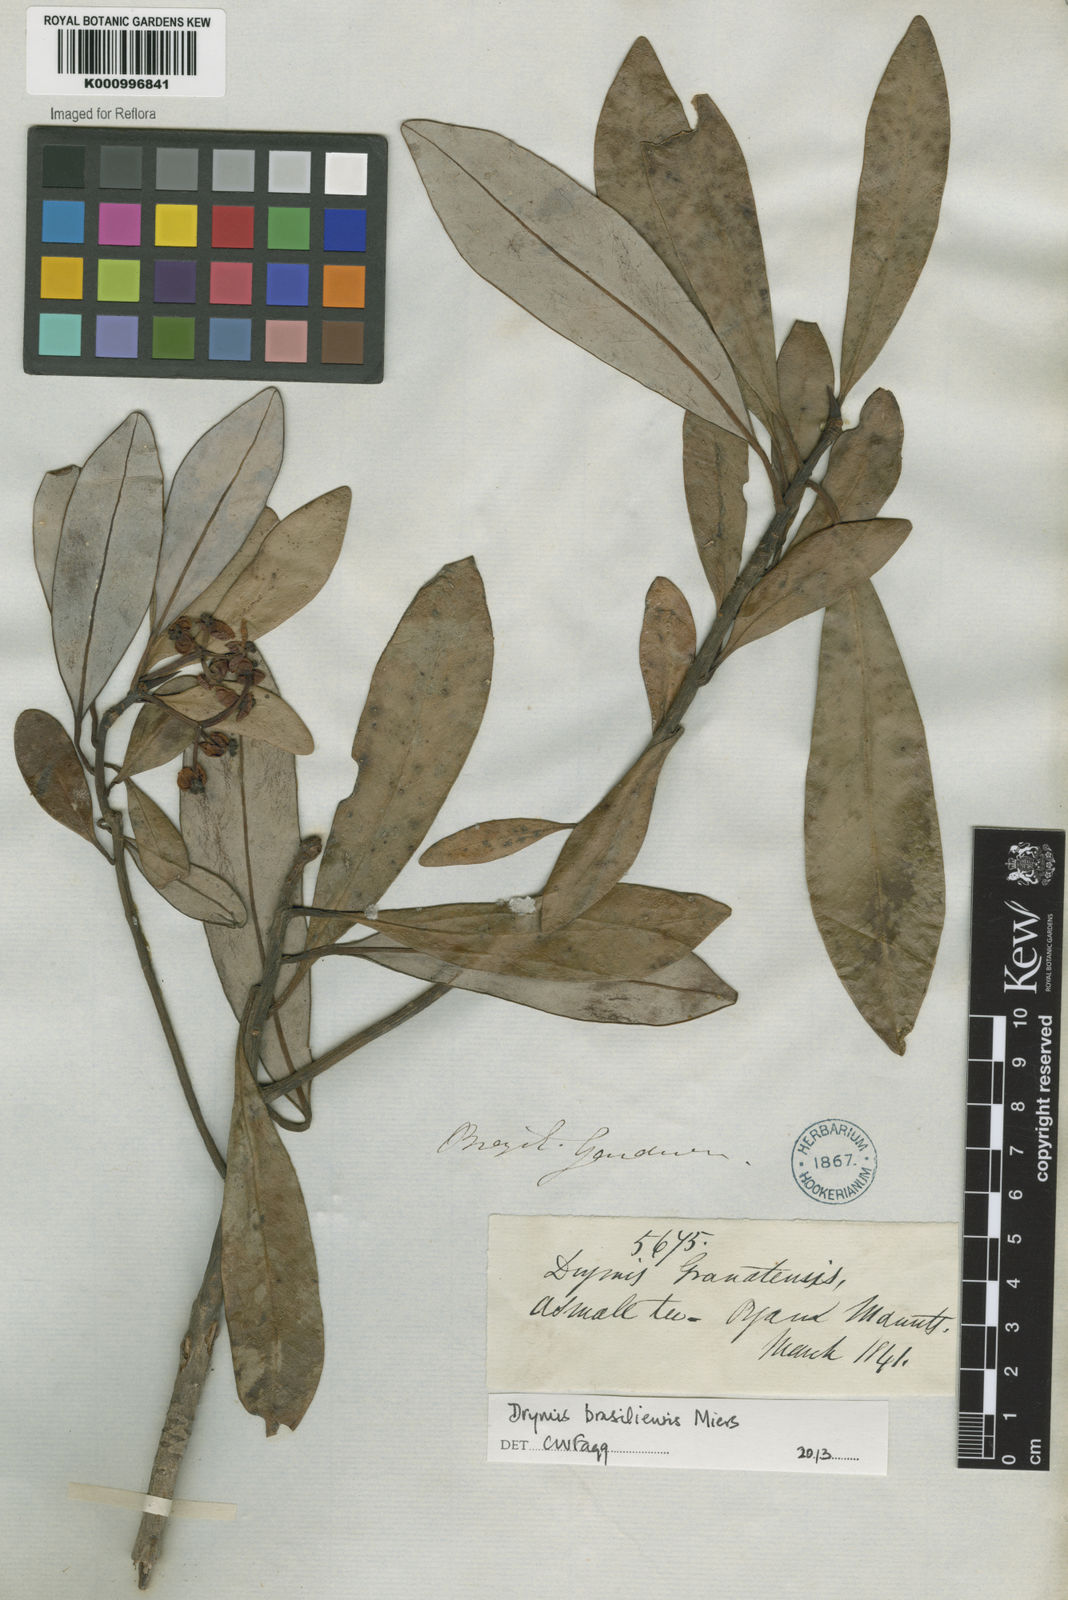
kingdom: Plantae
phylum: Tracheophyta
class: Magnoliopsida
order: Canellales
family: Winteraceae
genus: Drimys
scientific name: Drimys brasiliensis
